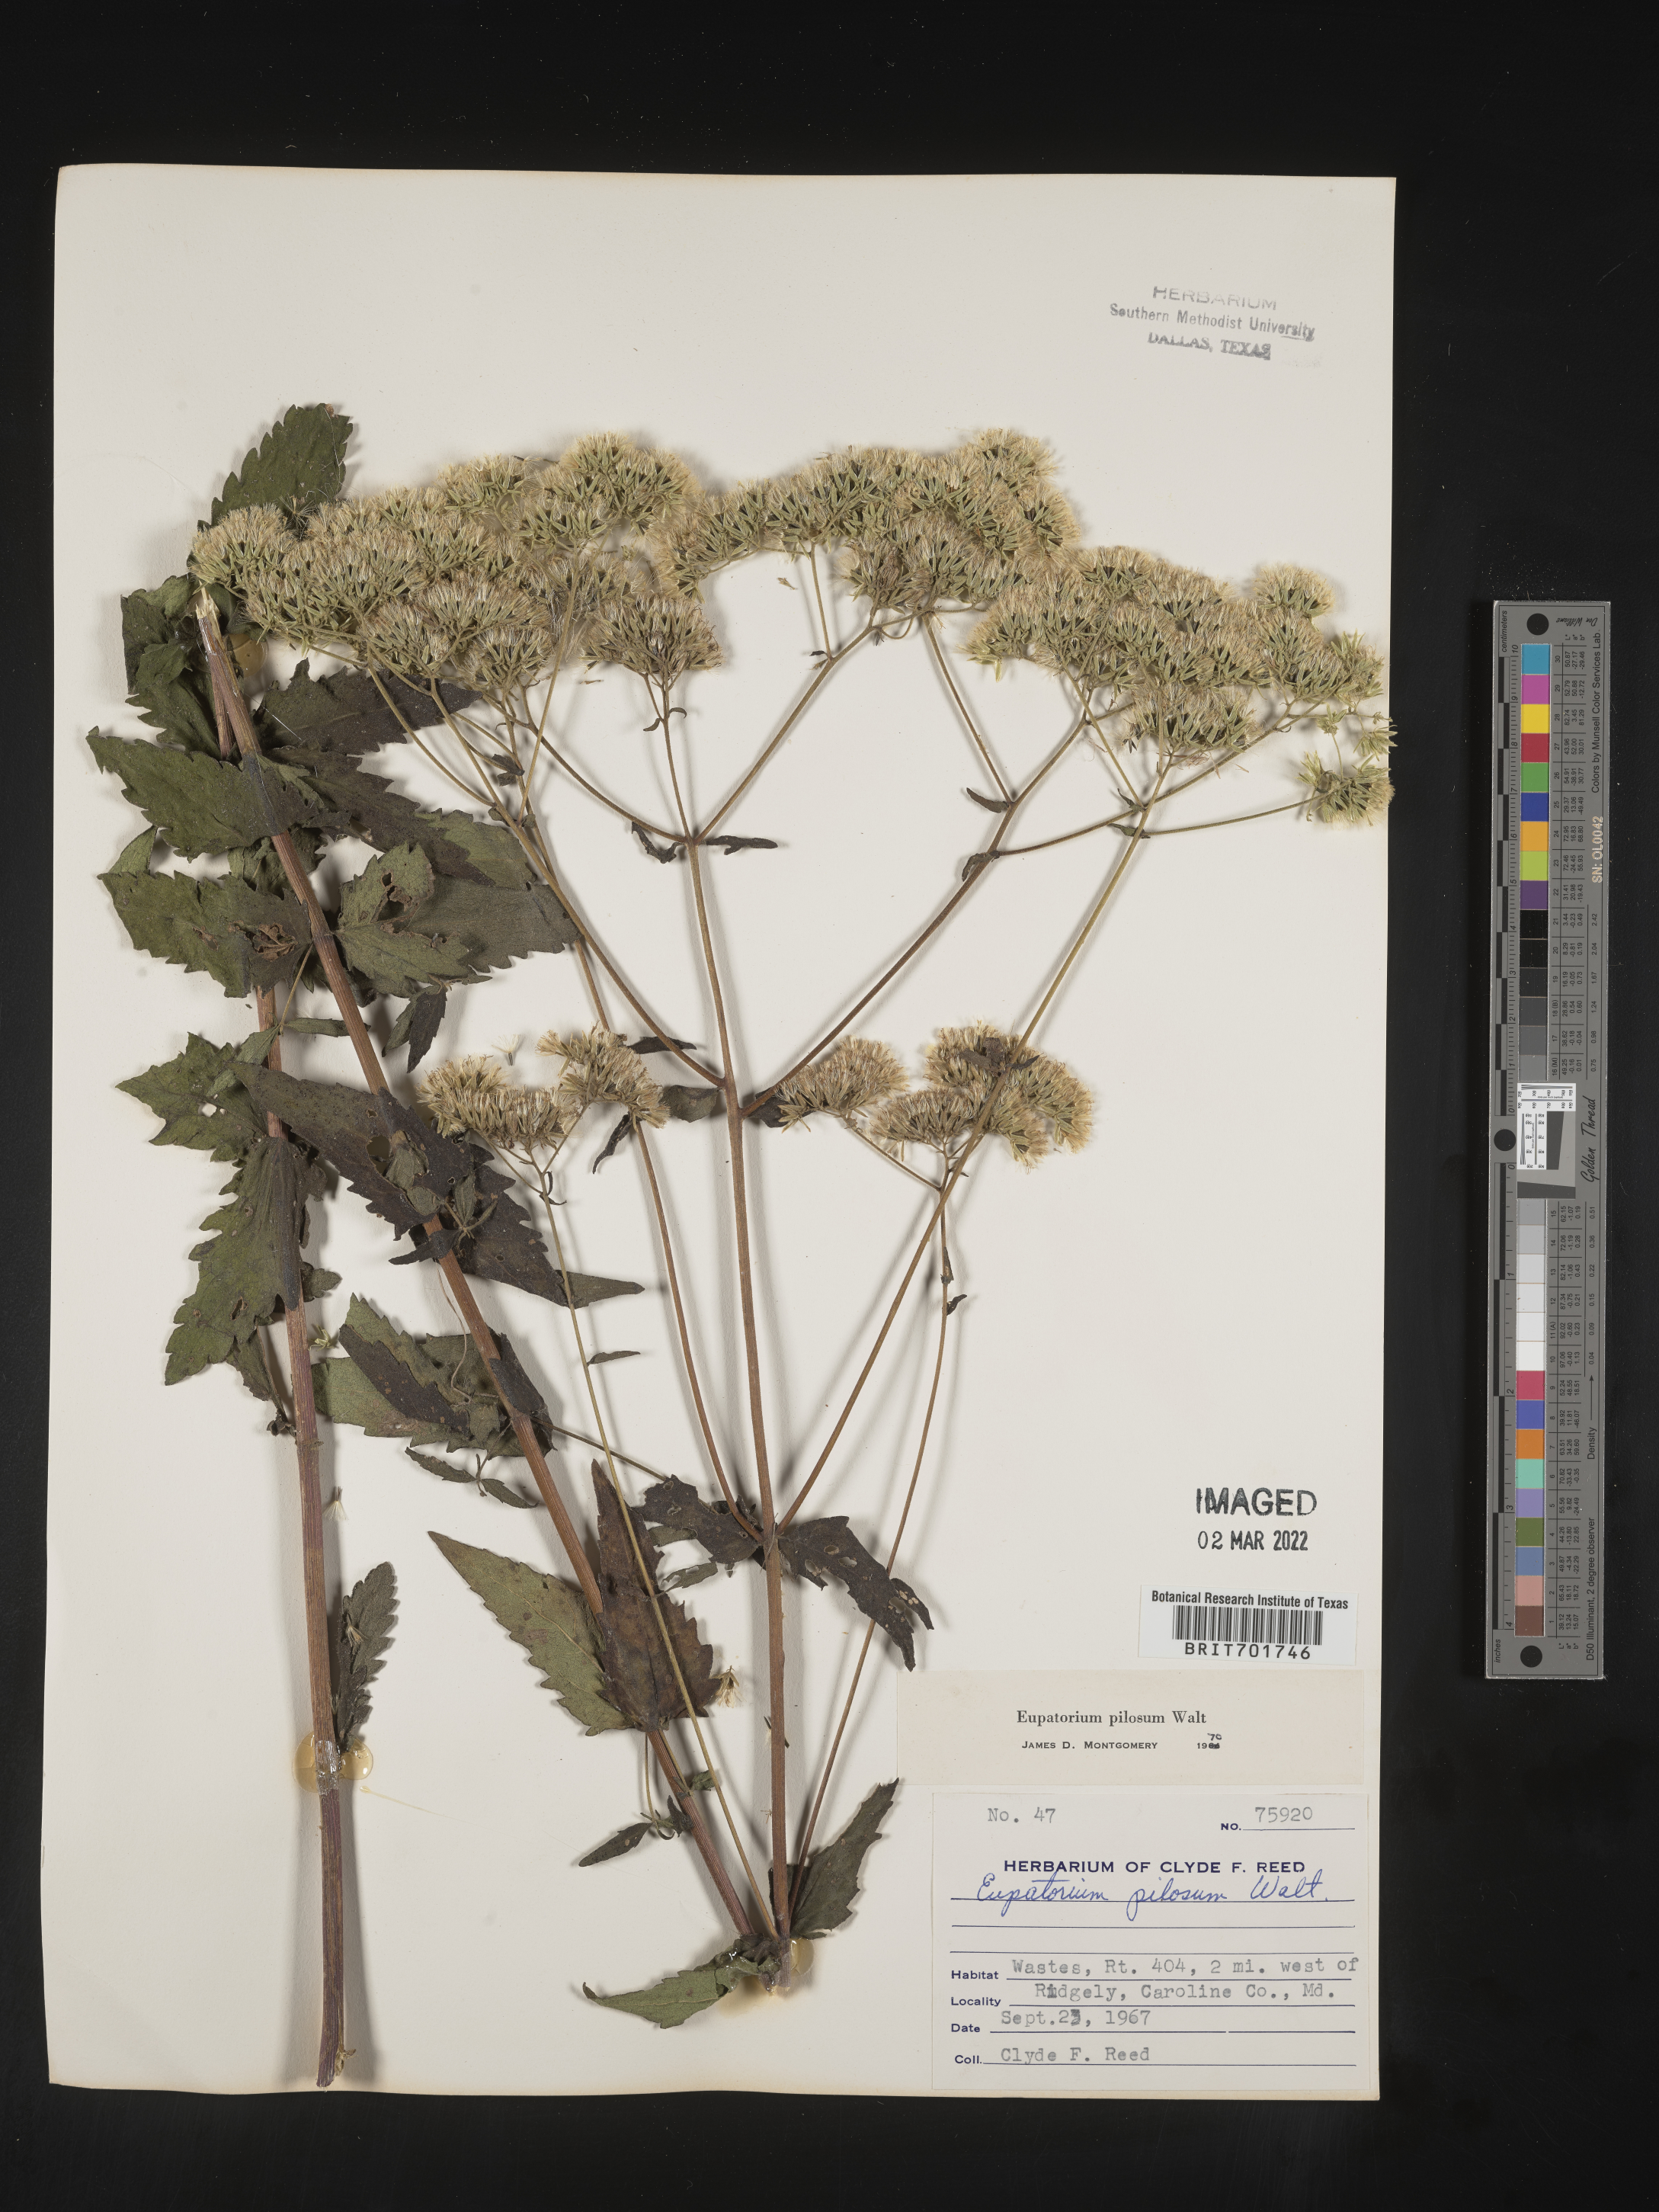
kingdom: Plantae
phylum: Tracheophyta
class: Magnoliopsida
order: Asterales
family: Asteraceae
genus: Eupatorium
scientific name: Eupatorium pilosum
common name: Rough boneset
